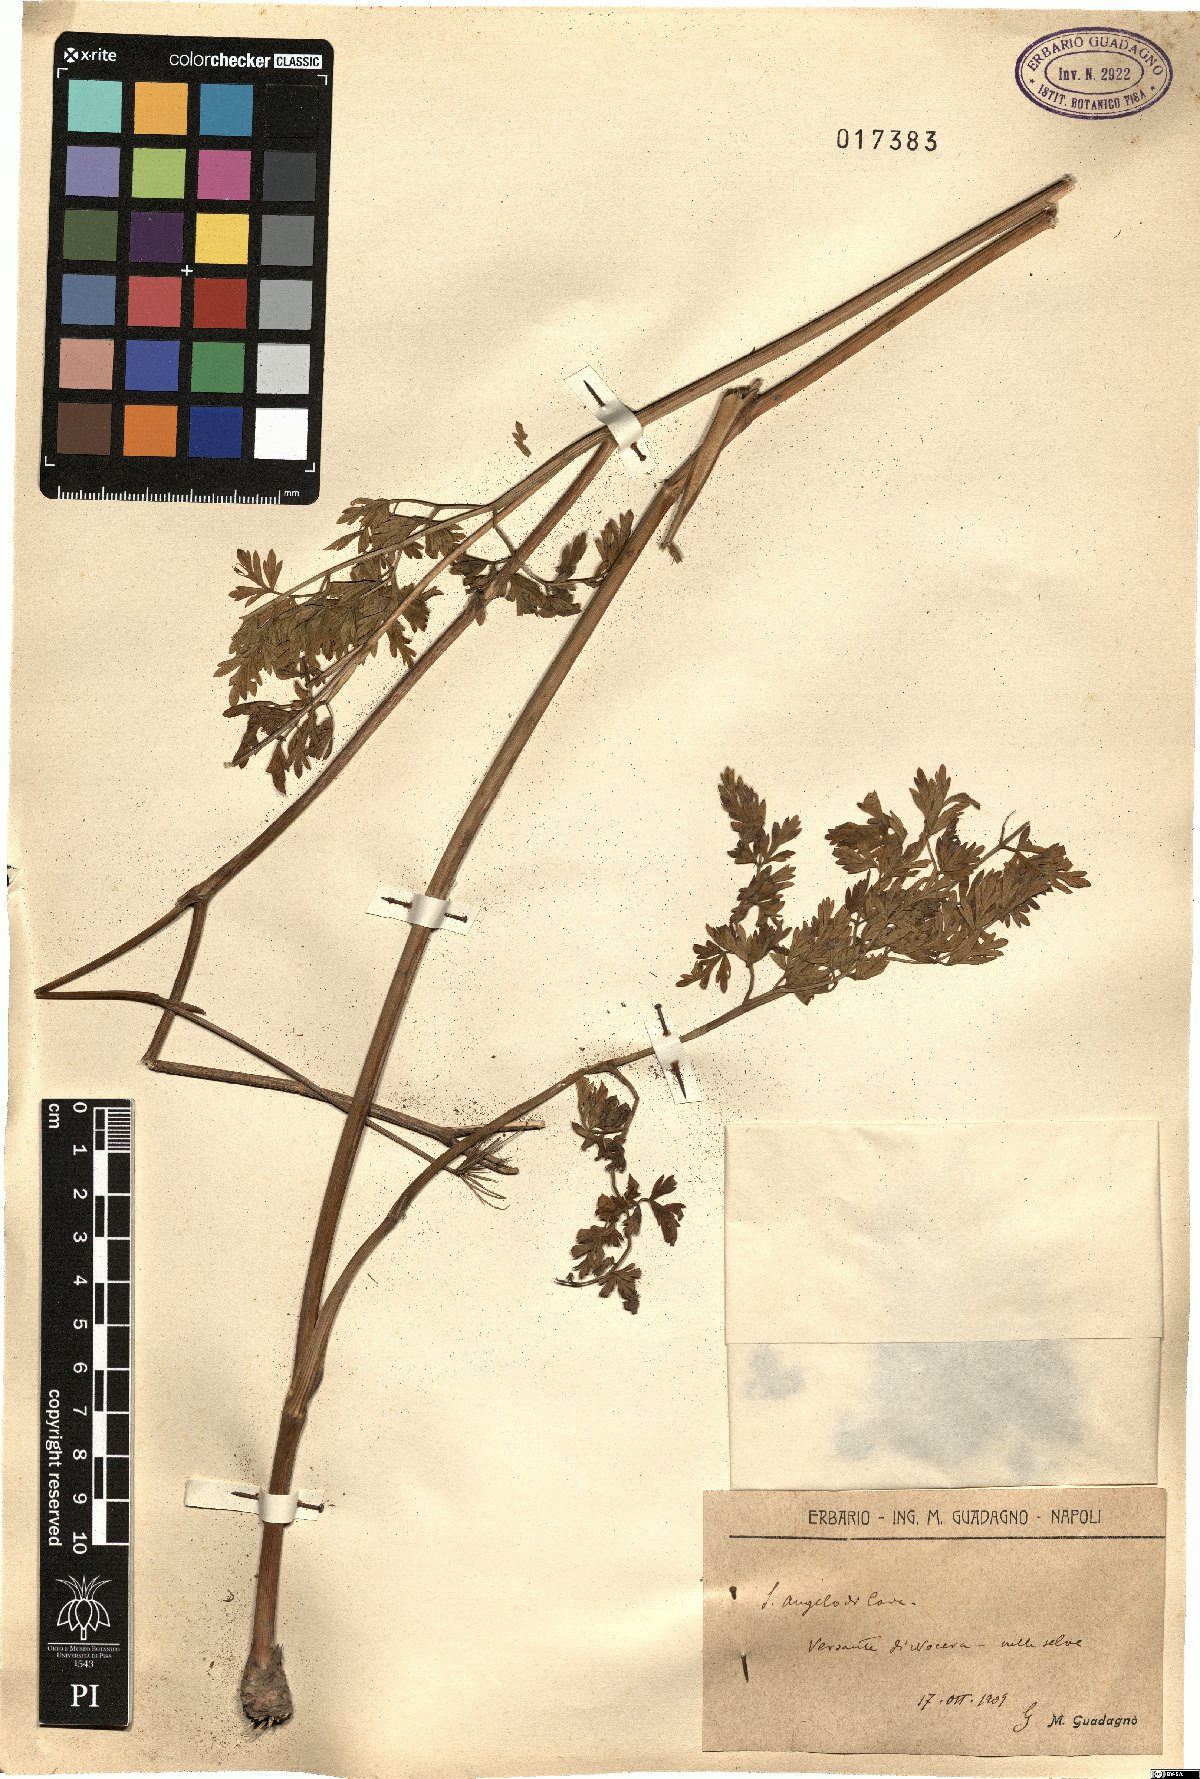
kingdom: Plantae
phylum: Tracheophyta
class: Magnoliopsida
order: Apiales
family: Apiaceae
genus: Selinum
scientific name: Selinum
